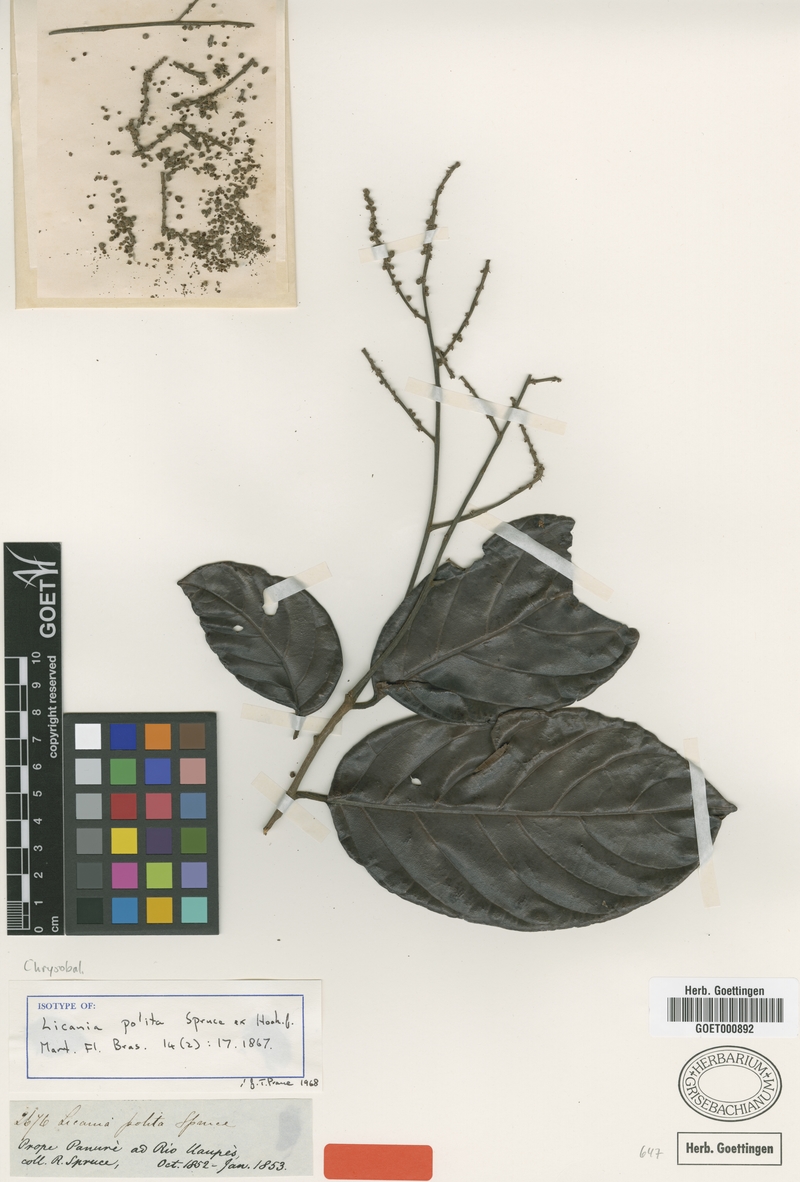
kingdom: Plantae
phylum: Tracheophyta
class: Magnoliopsida
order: Malpighiales
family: Chrysobalanaceae
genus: Licania
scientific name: Licania polita
